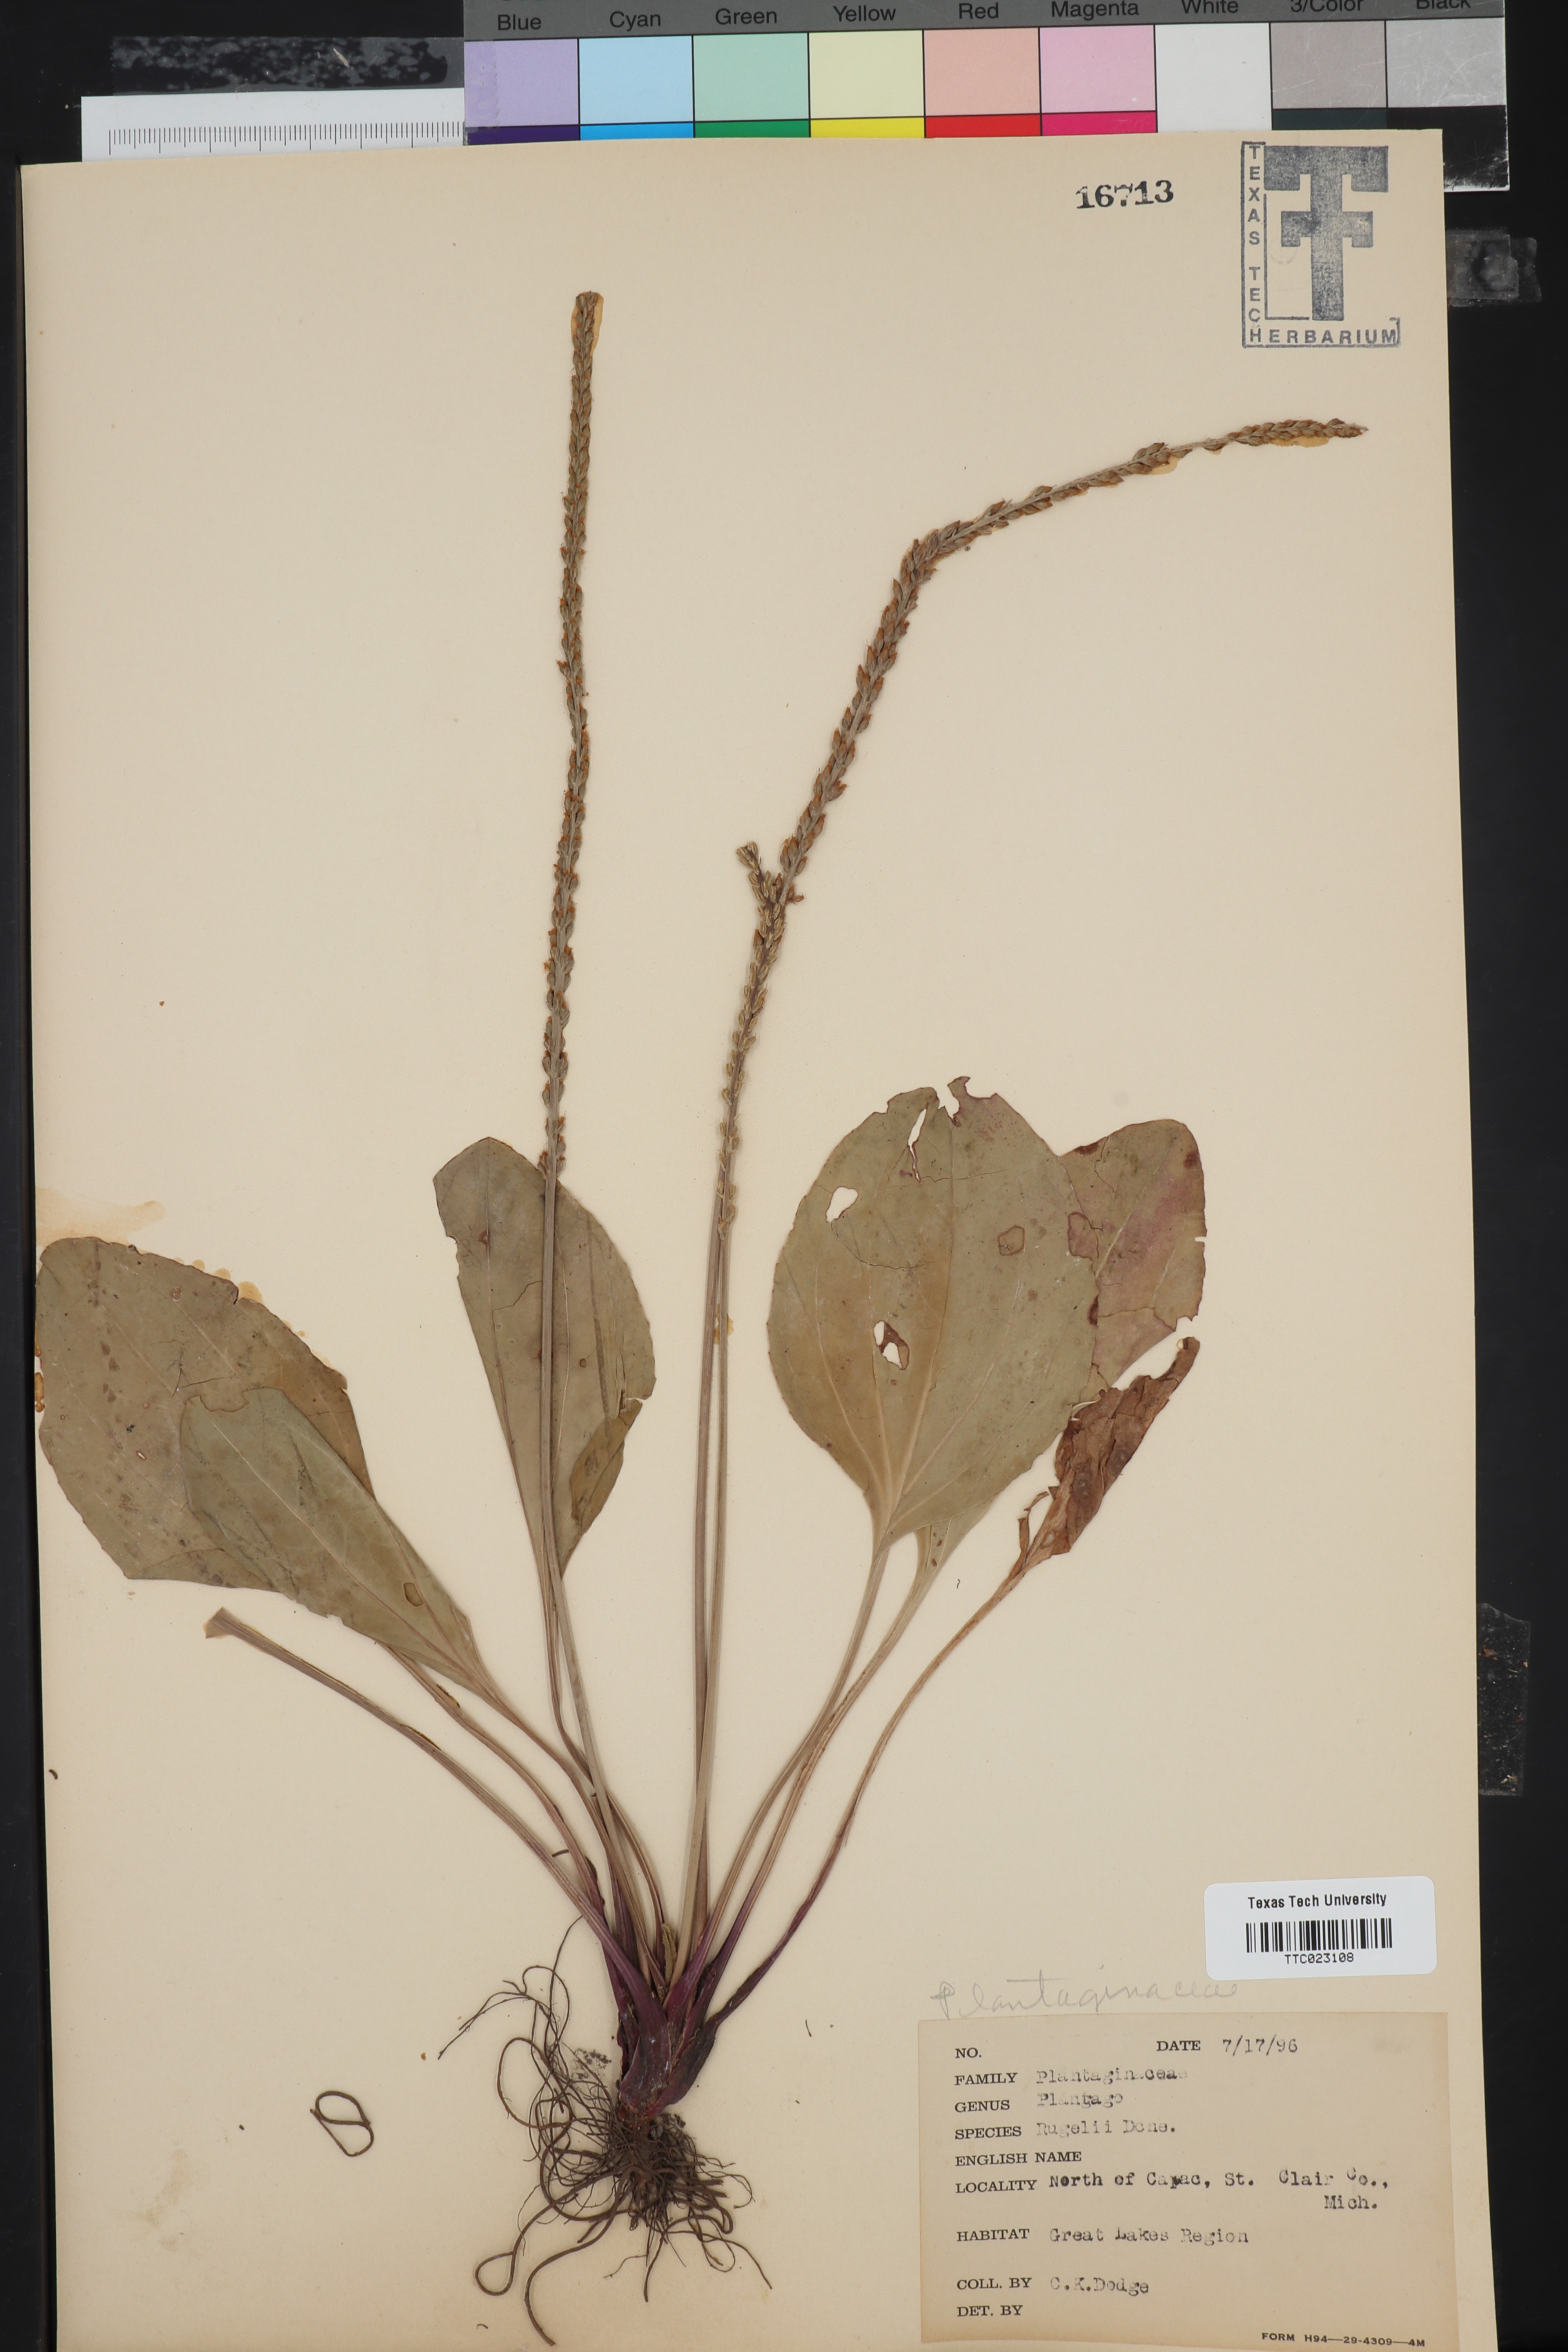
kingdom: Plantae
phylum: Tracheophyta
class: Magnoliopsida
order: Lamiales
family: Plantaginaceae
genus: Plantago
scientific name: Plantago rugelii
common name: American plantain
